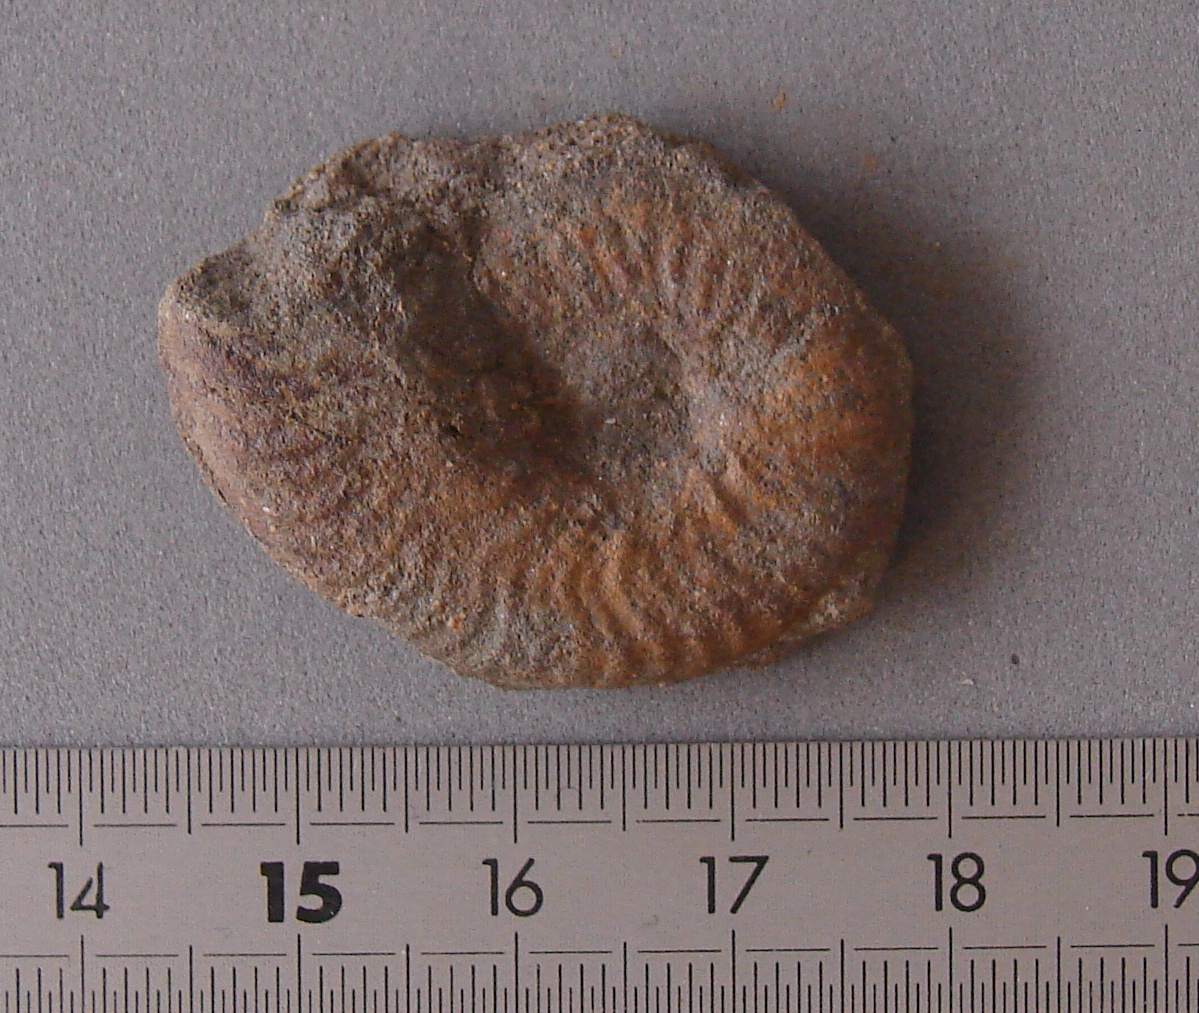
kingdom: Animalia
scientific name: Animalia
